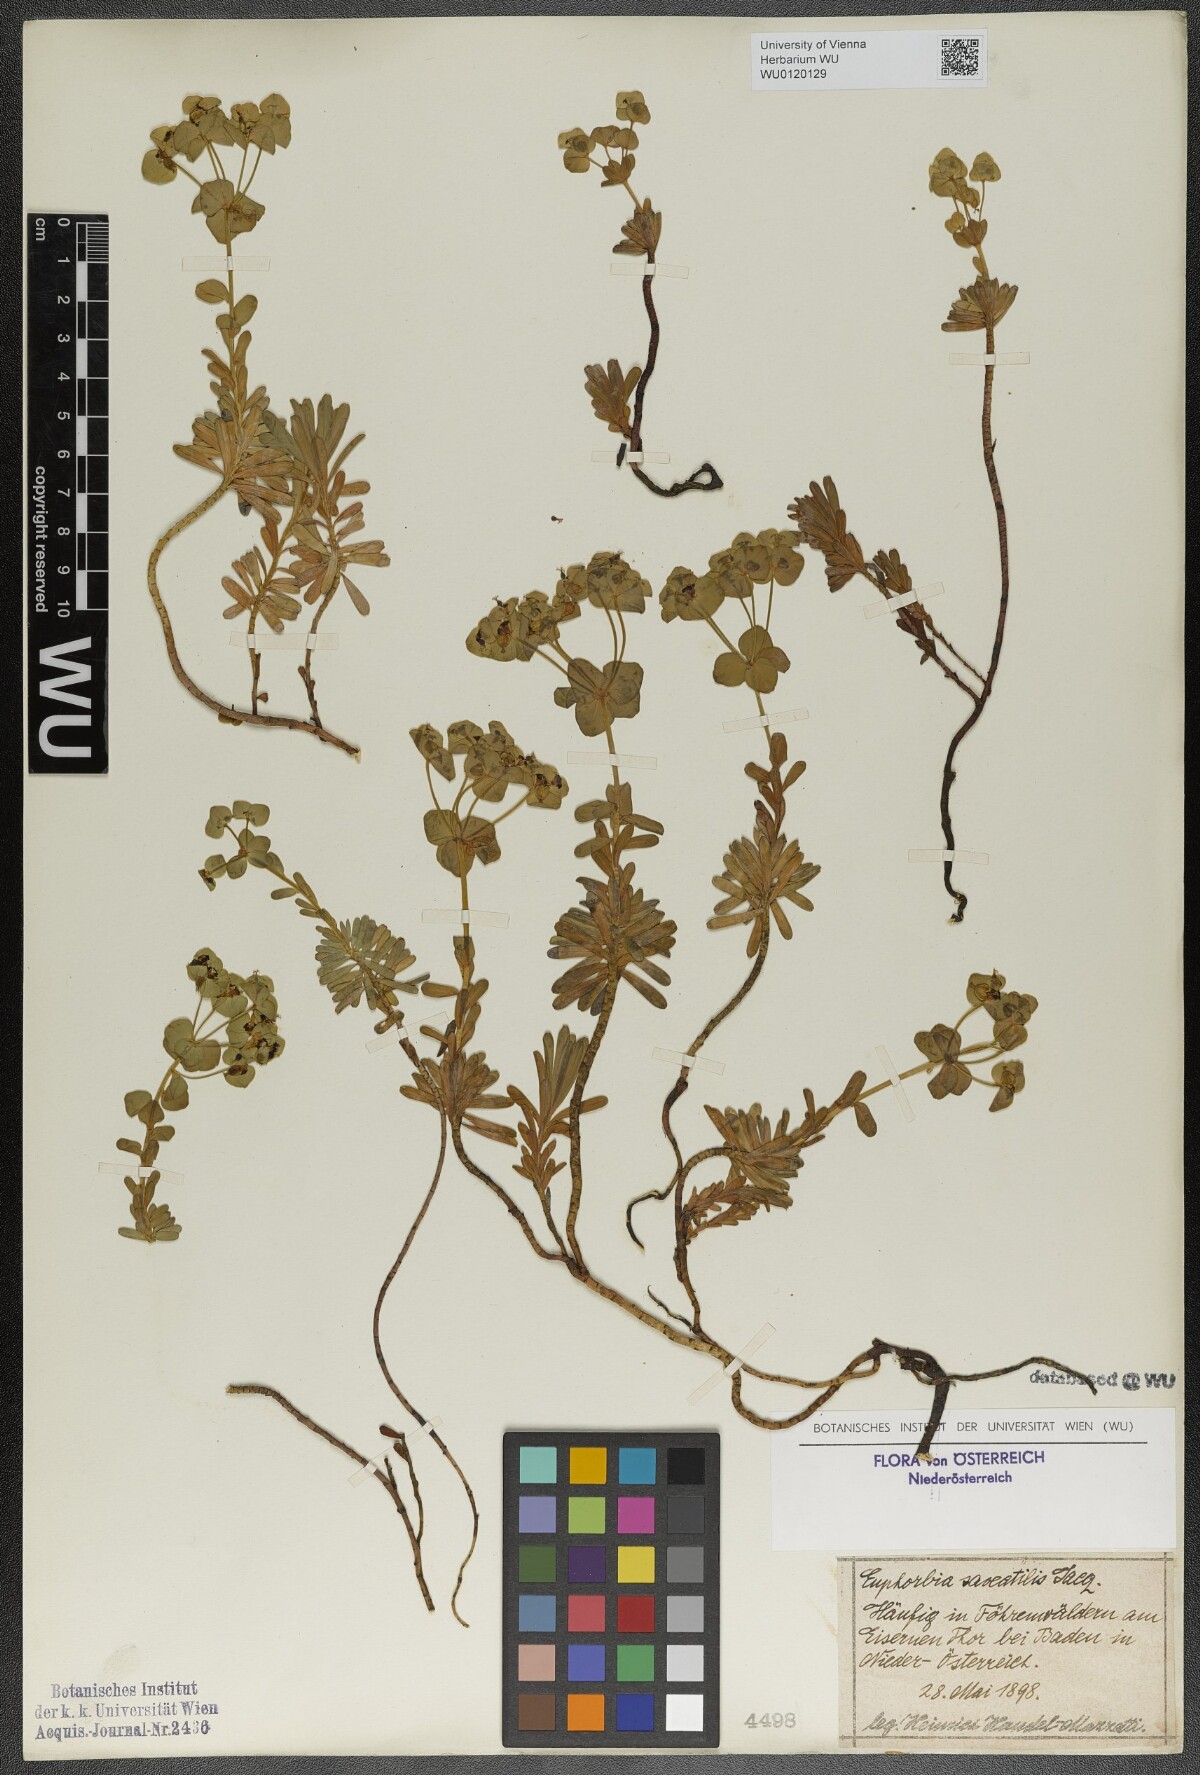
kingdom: Plantae
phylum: Tracheophyta
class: Magnoliopsida
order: Malpighiales
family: Euphorbiaceae
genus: Euphorbia
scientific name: Euphorbia saxatilis
